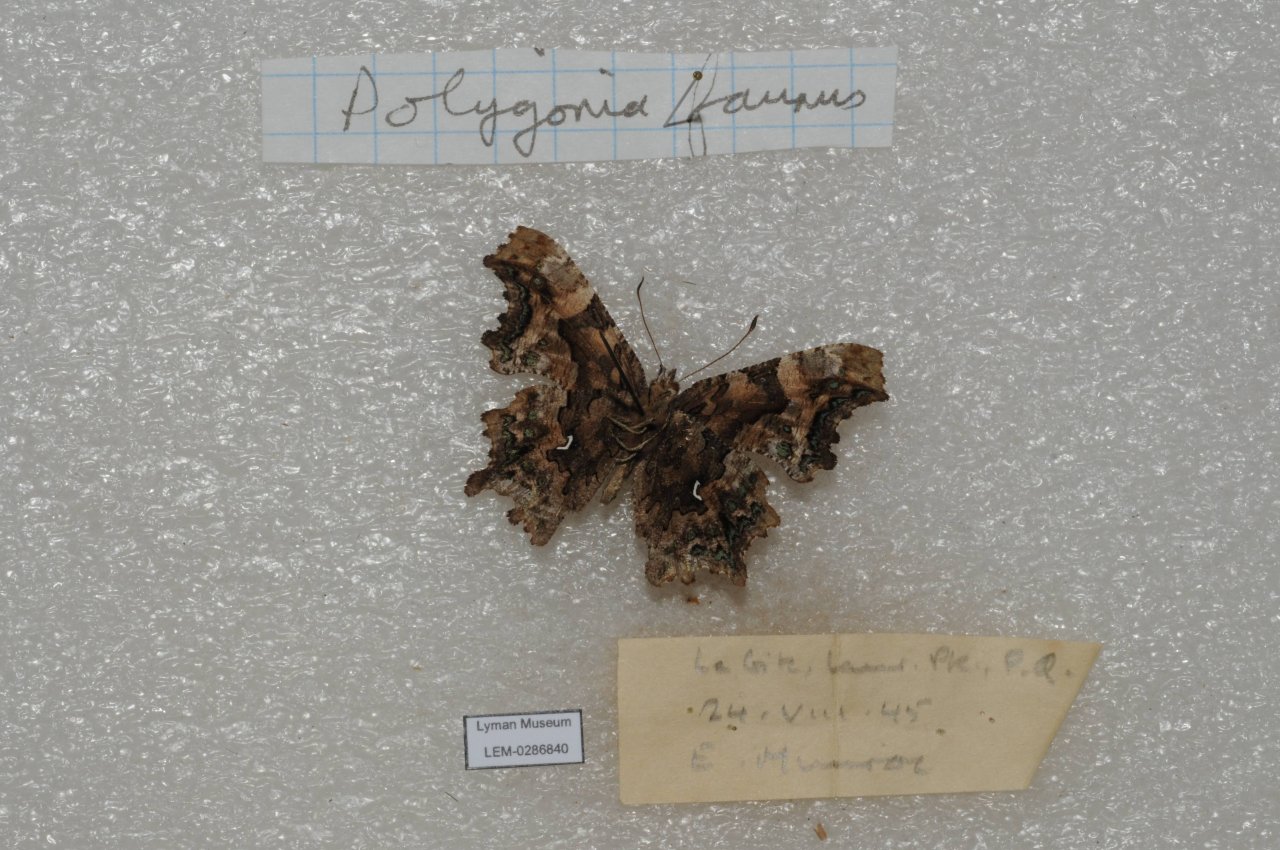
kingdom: Animalia
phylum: Arthropoda
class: Insecta
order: Lepidoptera
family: Nymphalidae
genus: Polygonia
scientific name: Polygonia faunus
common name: Green Comma
